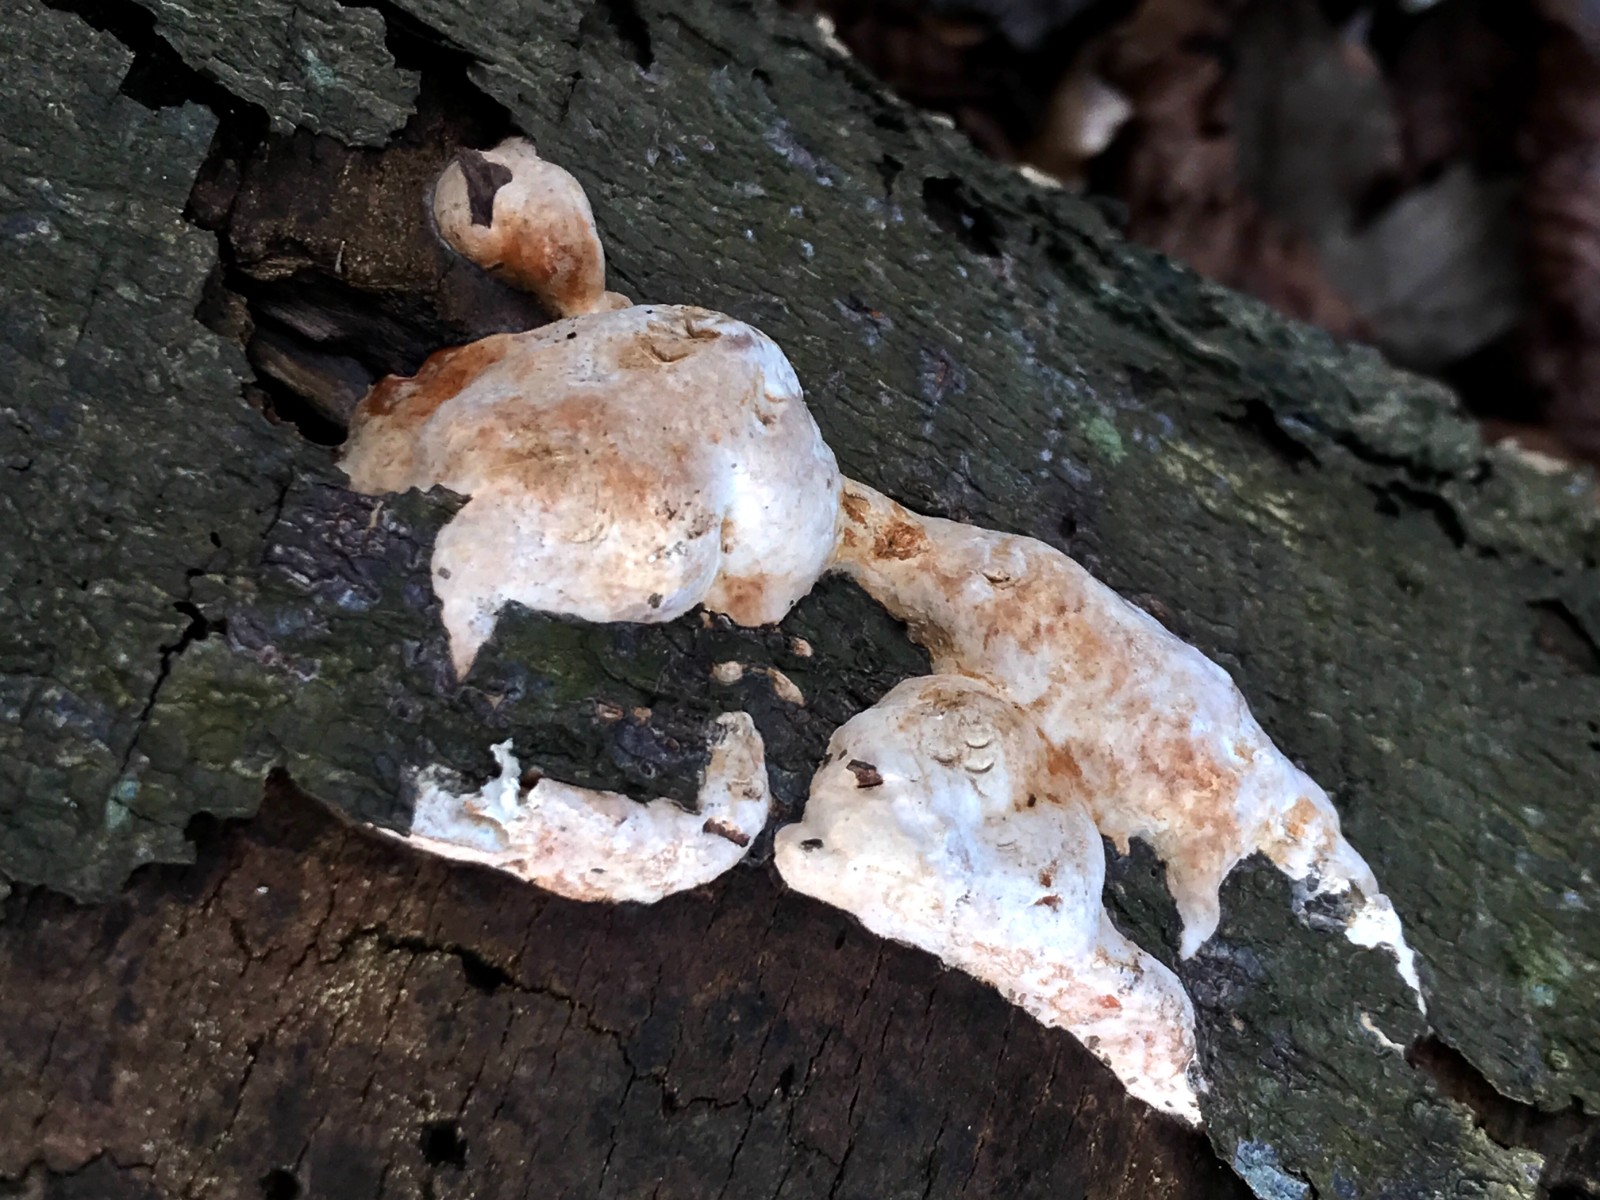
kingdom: Fungi
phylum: Basidiomycota
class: Agaricomycetes
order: Polyporales
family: Fomitopsidaceae
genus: Fomitopsis
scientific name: Fomitopsis pinicola
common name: randbæltet hovporesvamp
